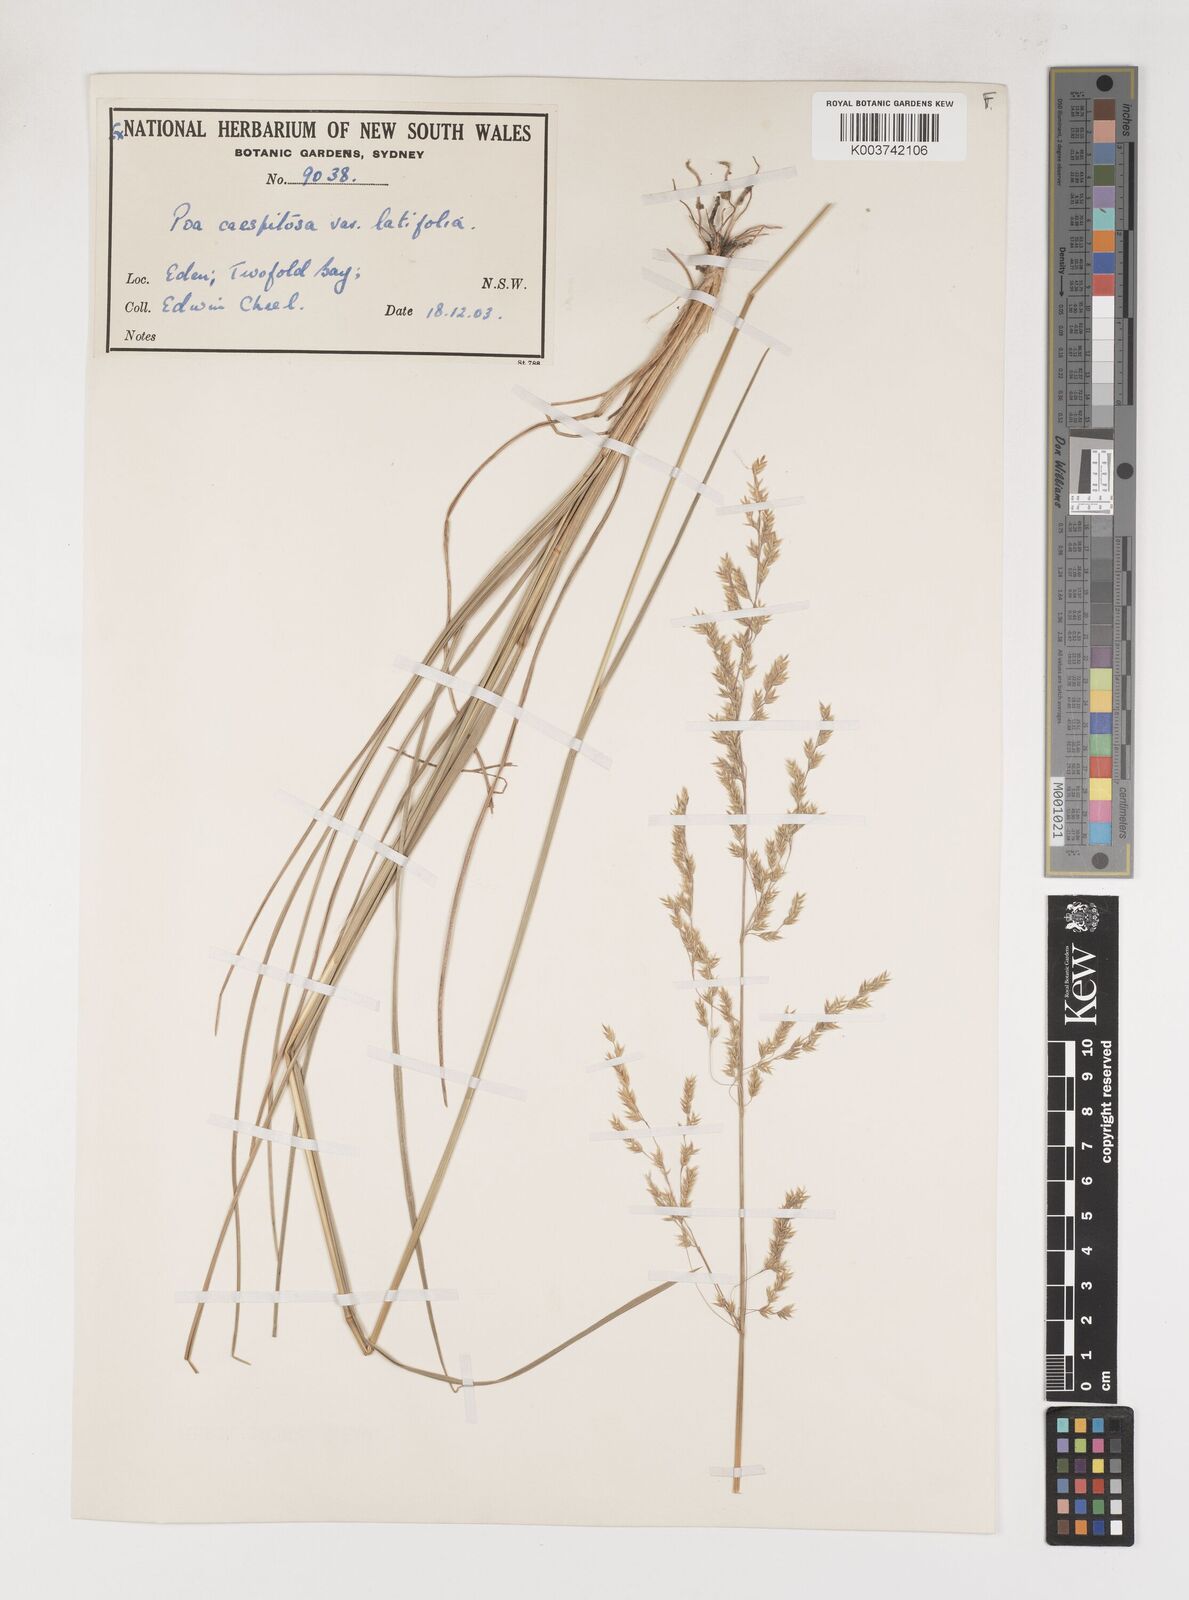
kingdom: Plantae
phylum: Tracheophyta
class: Liliopsida
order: Poales
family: Poaceae
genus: Poa
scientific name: Poa ensiformis
